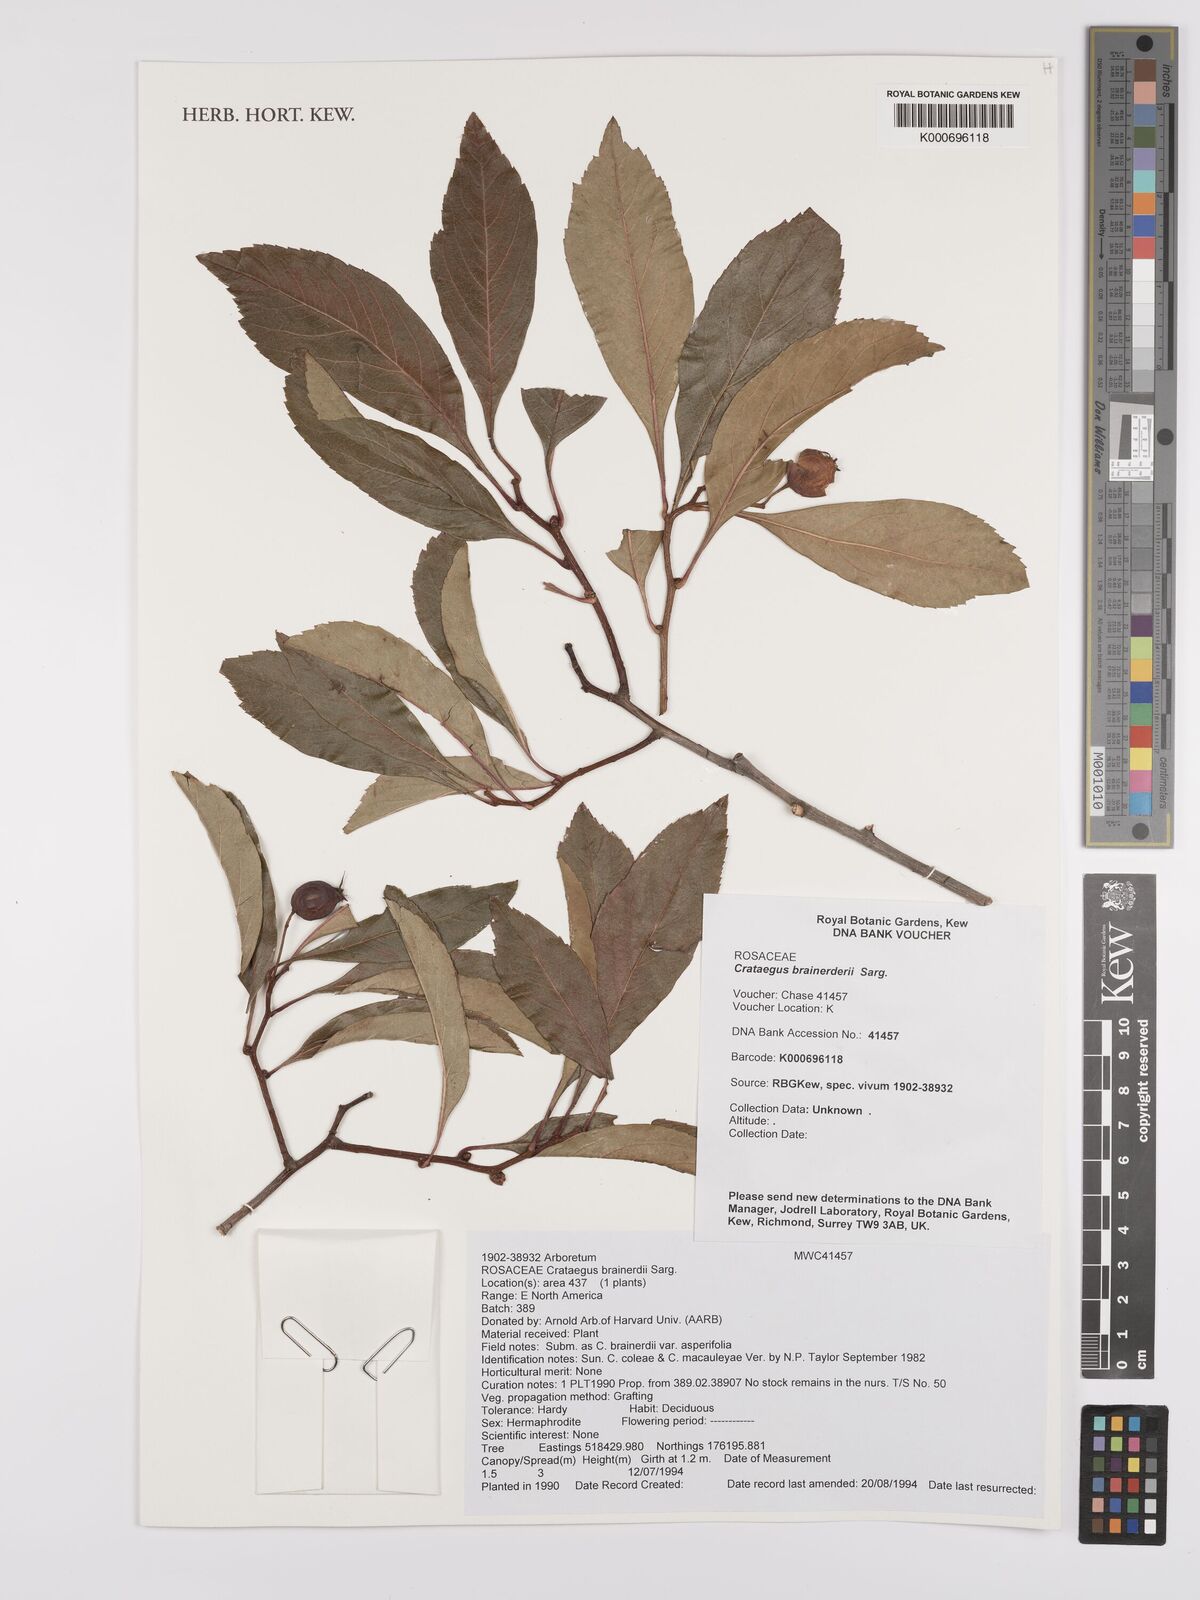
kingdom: Plantae
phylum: Tracheophyta
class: Magnoliopsida
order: Rosales
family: Rosaceae
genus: Crataegus
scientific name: Crataegus
